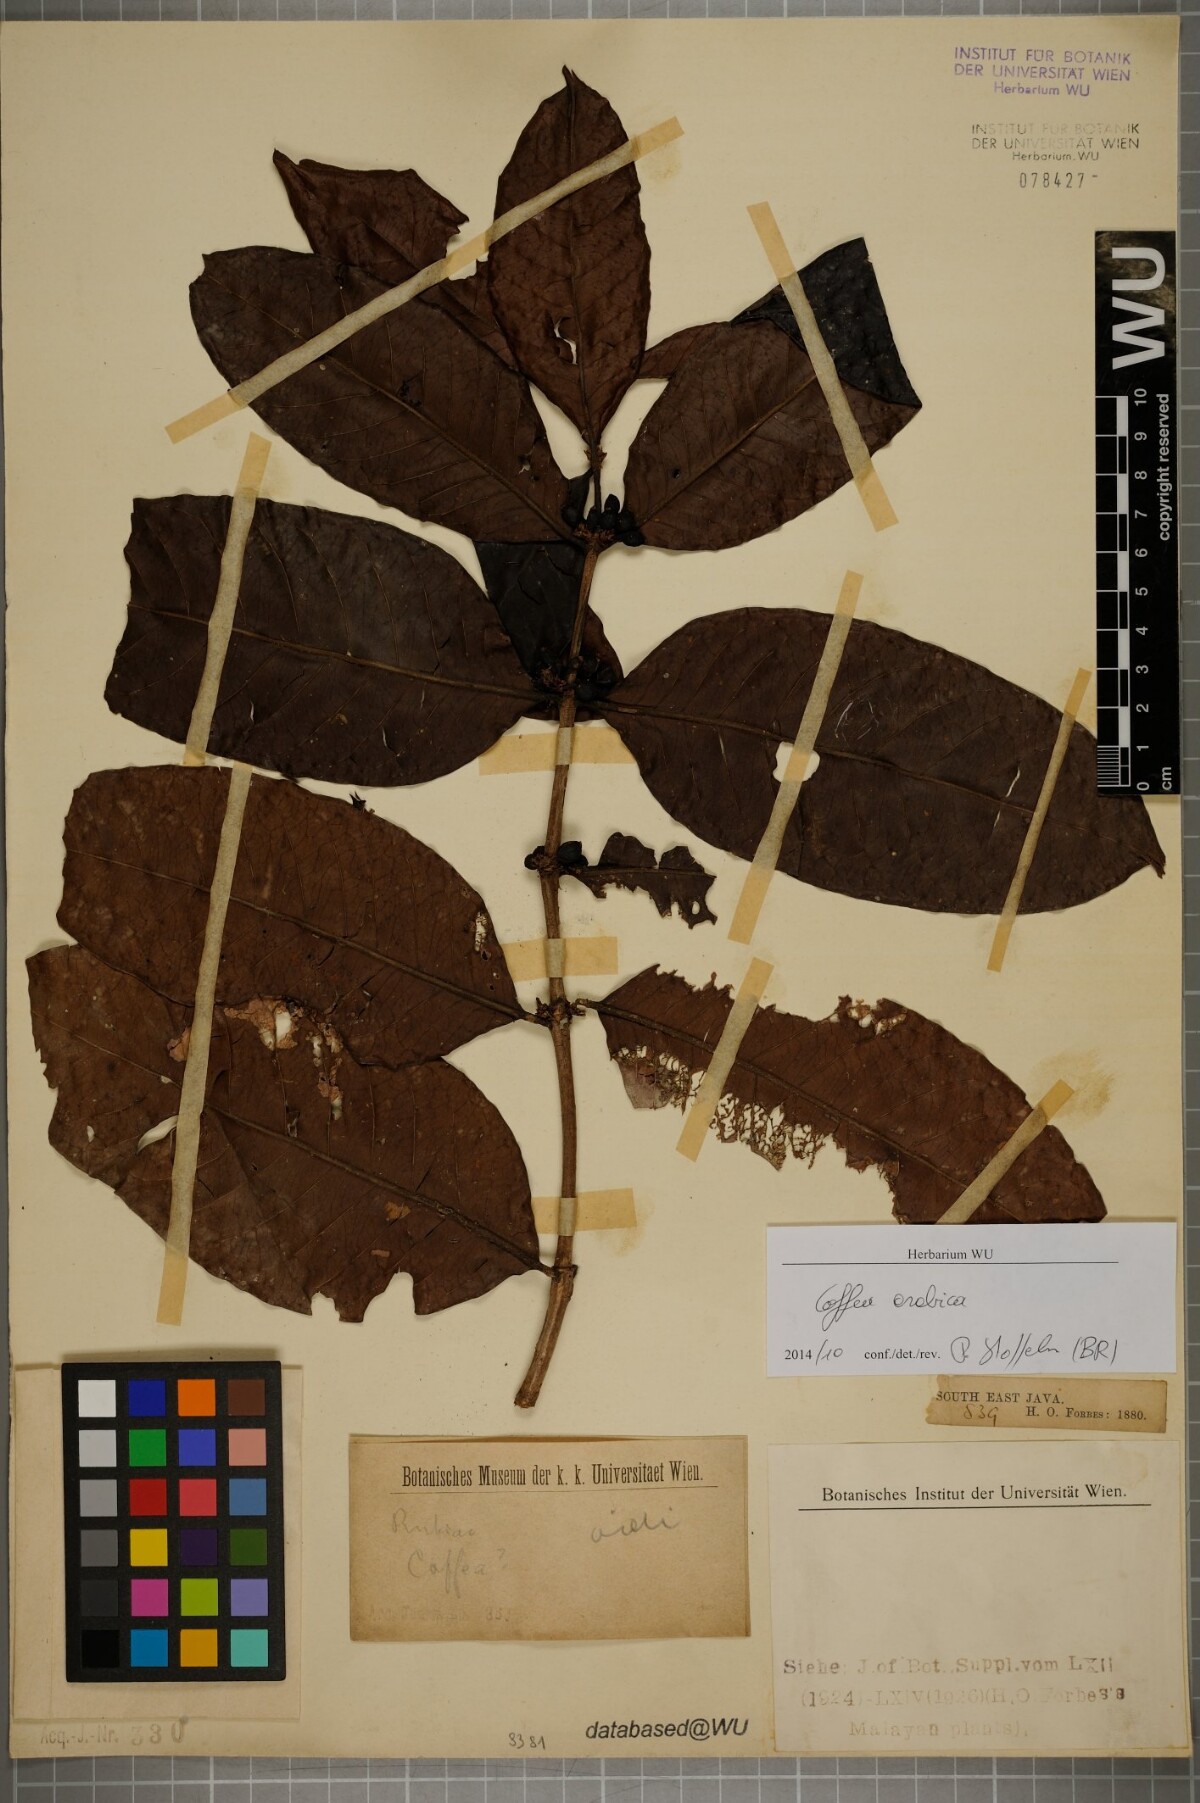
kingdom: Plantae
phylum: Tracheophyta
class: Magnoliopsida
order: Gentianales
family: Rubiaceae
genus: Coffea
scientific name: Coffea arabica
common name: Coffee
